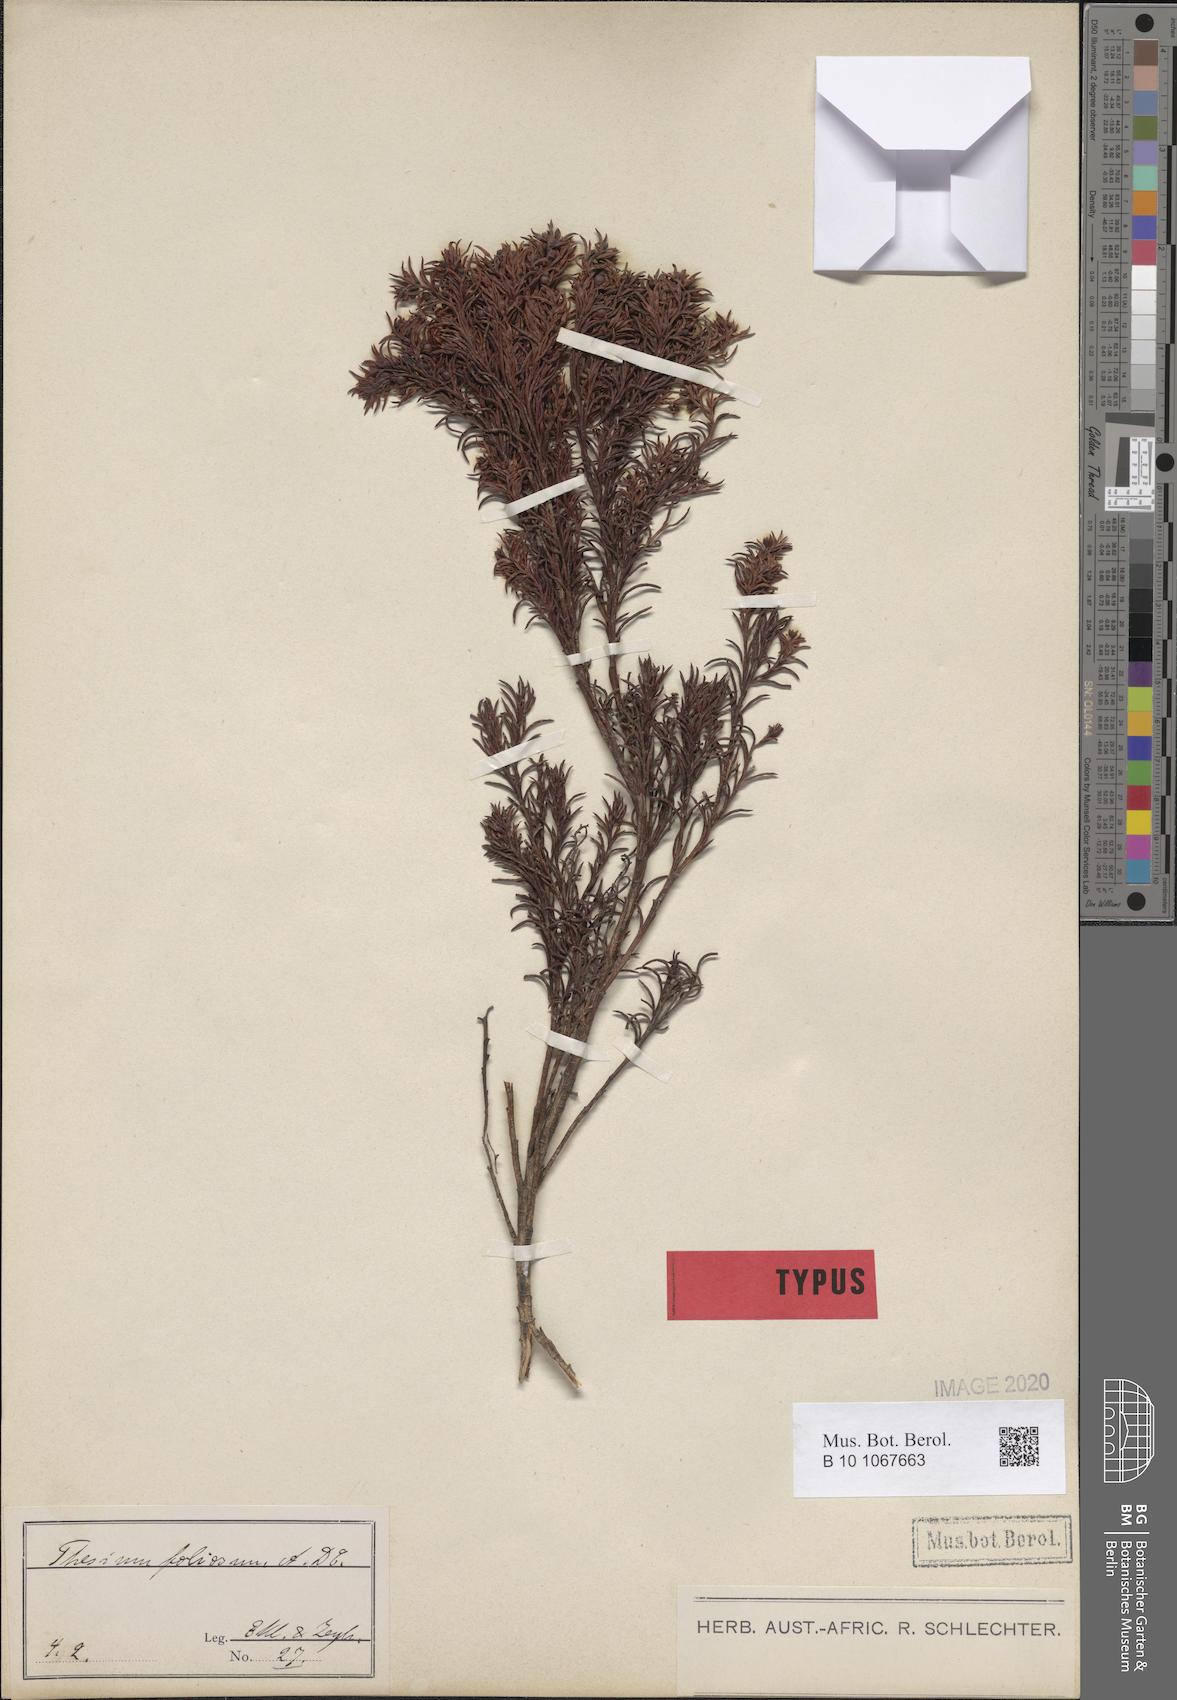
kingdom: Plantae
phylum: Tracheophyta
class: Magnoliopsida
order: Santalales
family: Thesiaceae
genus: Thesium
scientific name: Thesium foliosum
